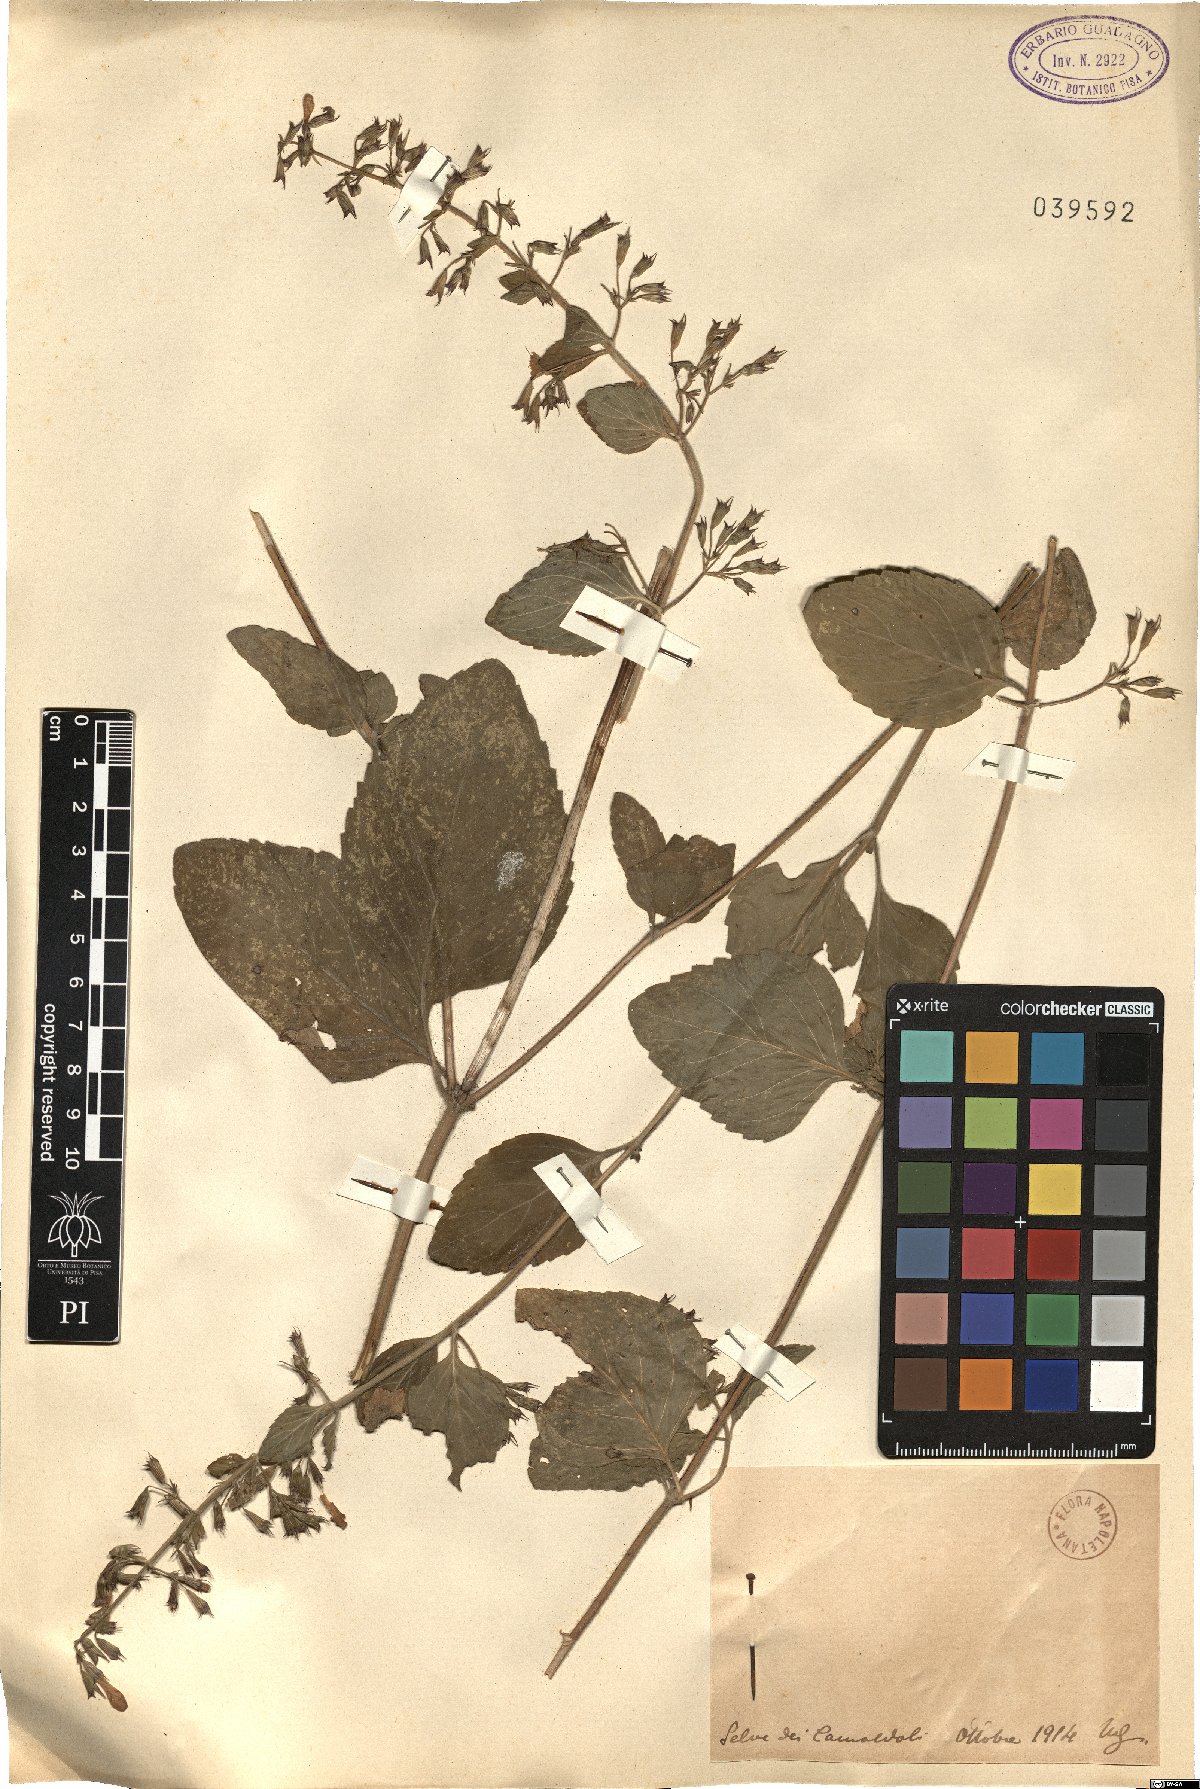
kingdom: Plantae
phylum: Tracheophyta
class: Magnoliopsida
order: Lamiales
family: Lamiaceae
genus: Calamintha
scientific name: Calamintha
